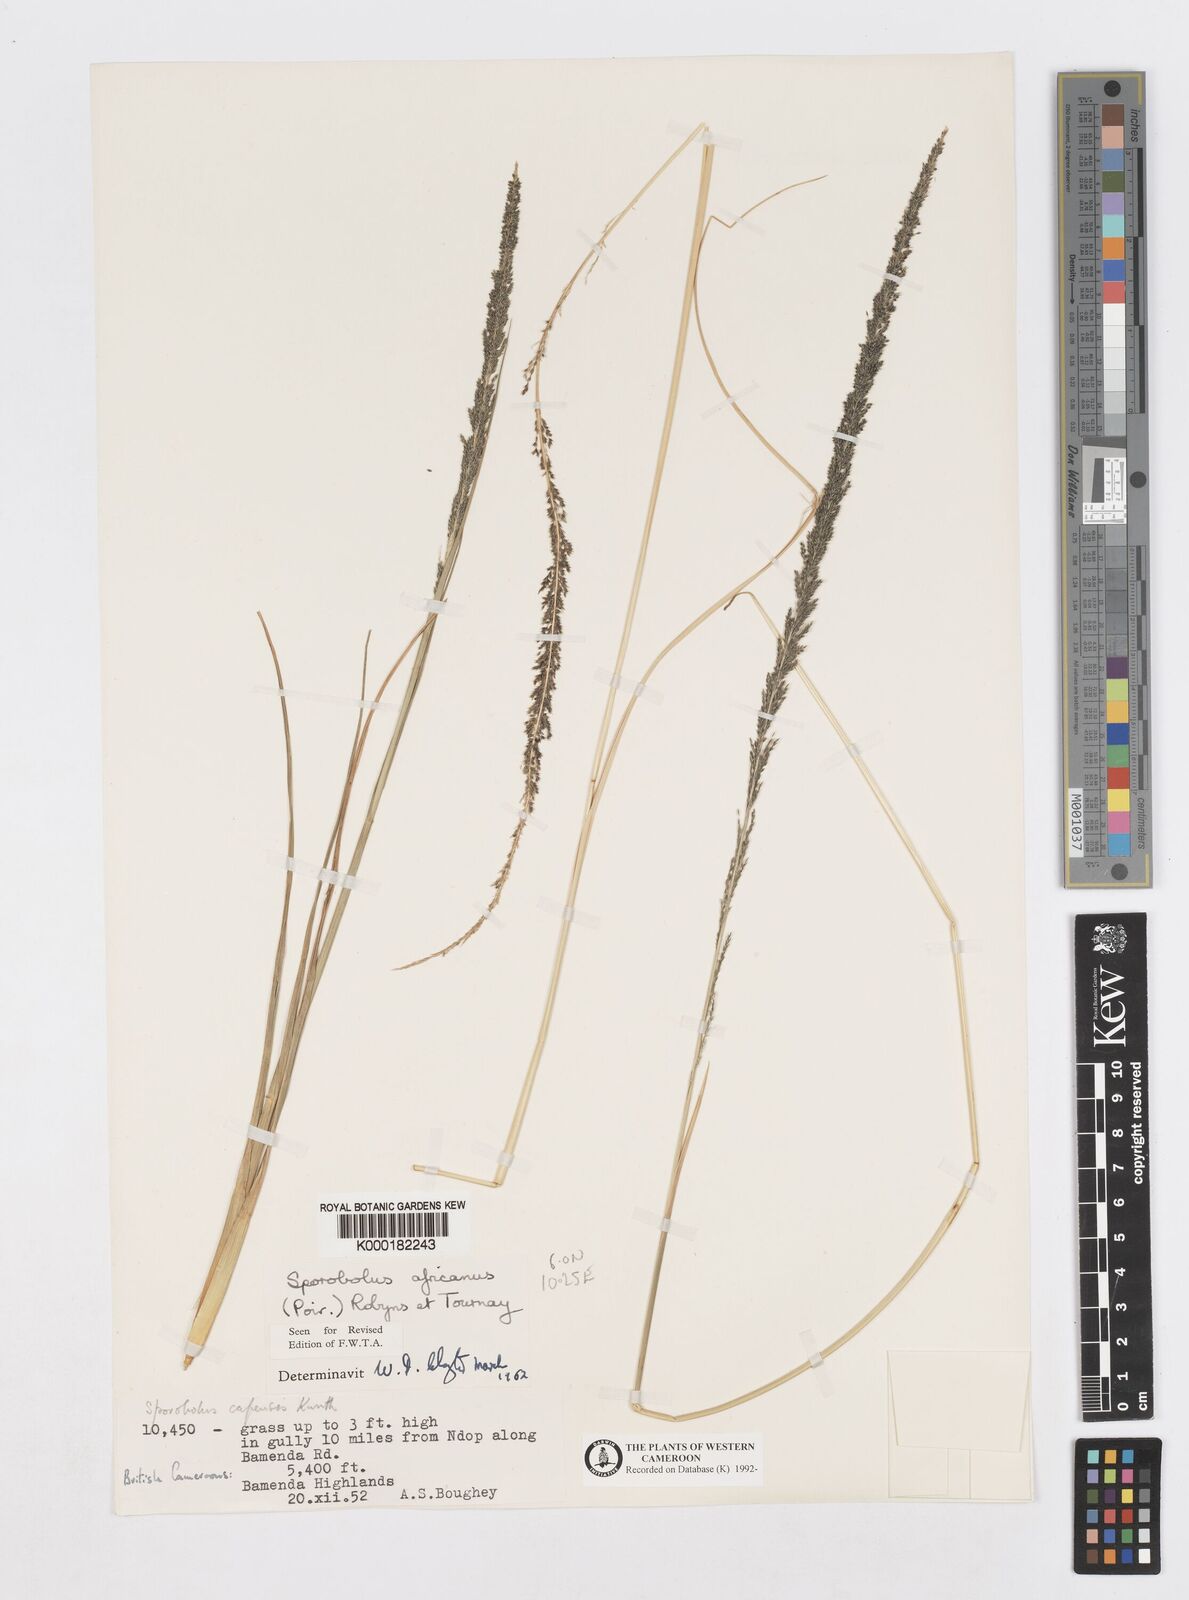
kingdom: Plantae
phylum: Tracheophyta
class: Liliopsida
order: Poales
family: Poaceae
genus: Sporobolus
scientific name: Sporobolus africanus
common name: African dropseed
